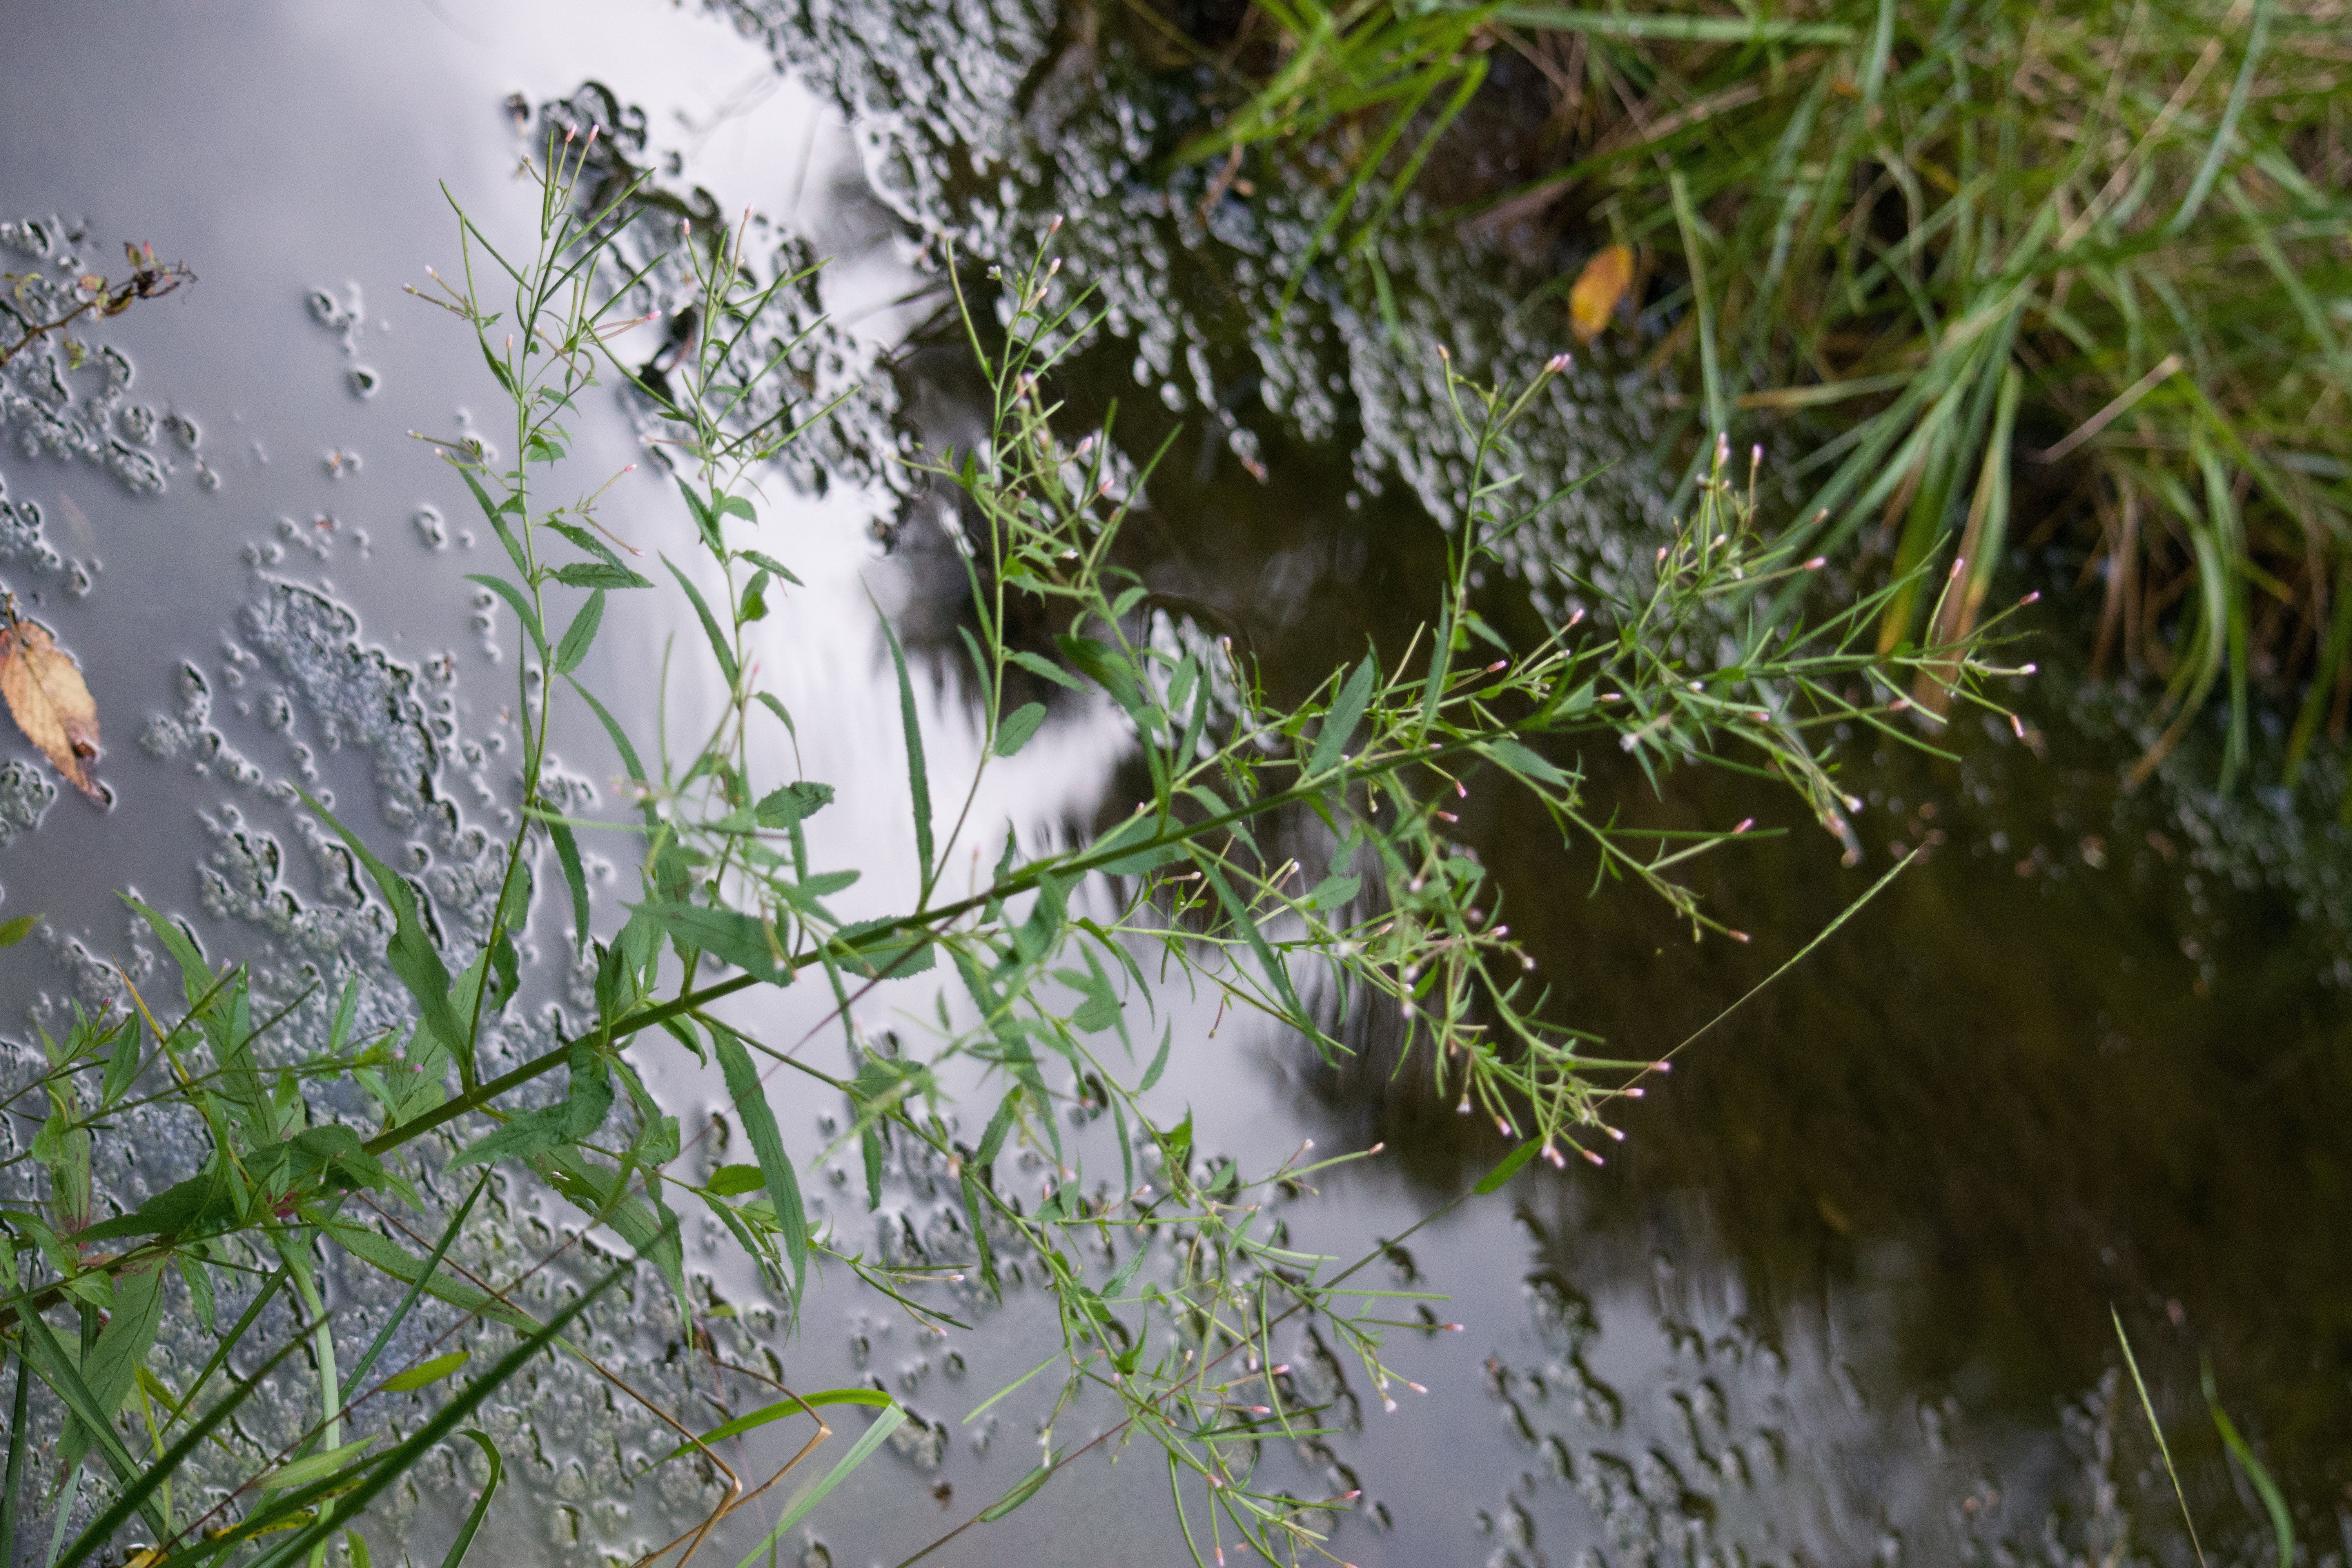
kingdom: Plantae
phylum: Tracheophyta
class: Magnoliopsida
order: Myrtales
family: Onagraceae
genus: Epilobium
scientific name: Epilobium coloratum
